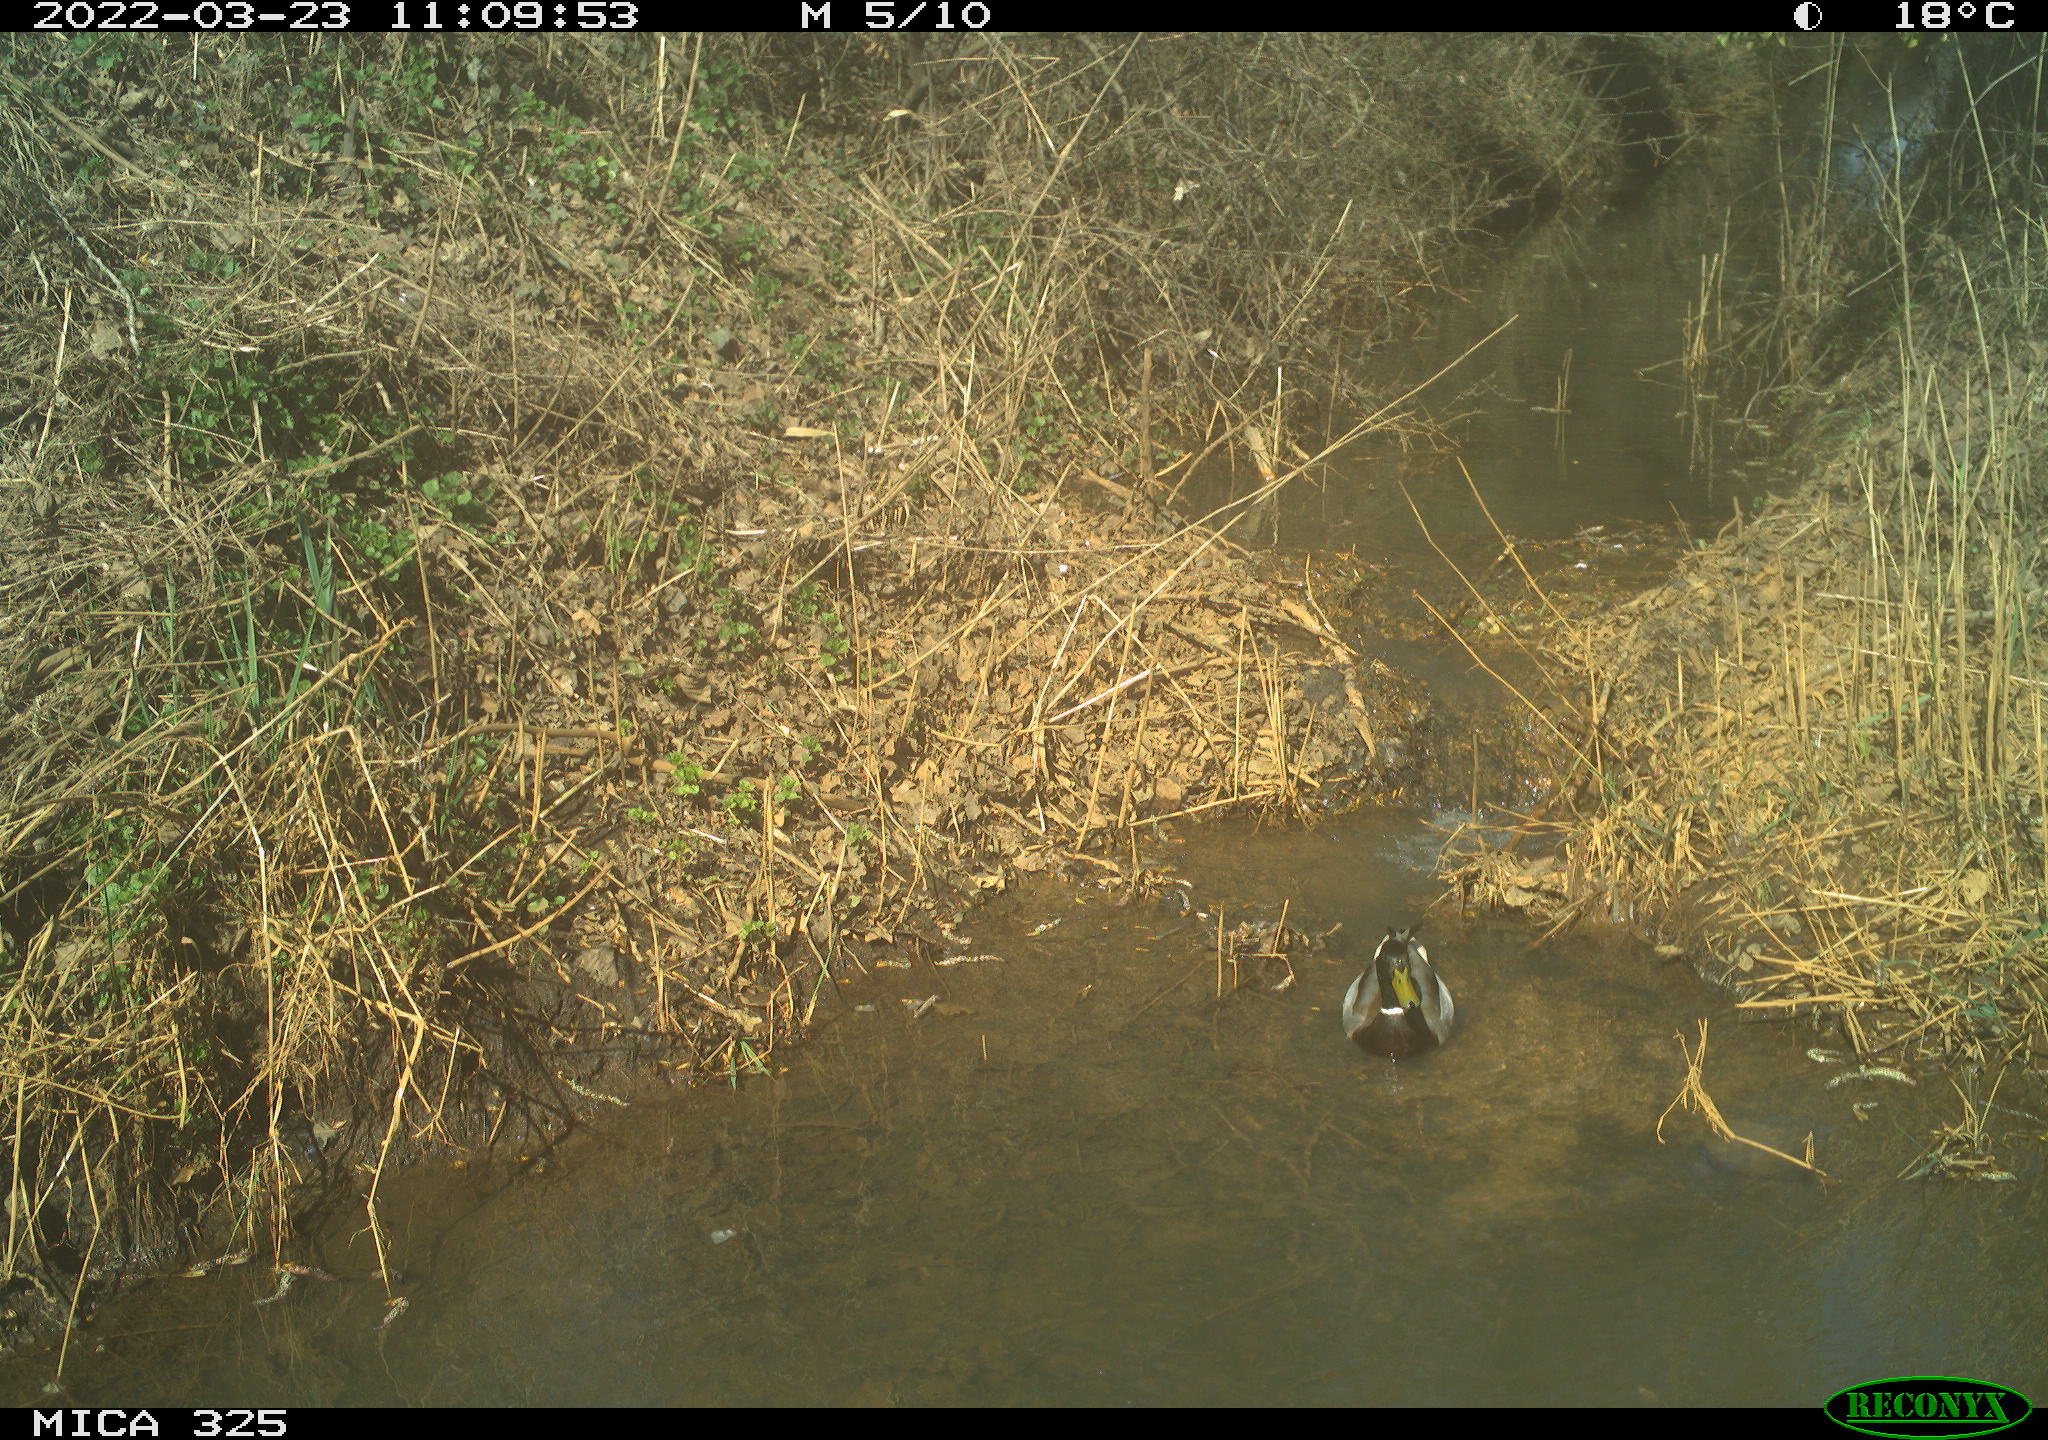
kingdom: Animalia
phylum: Chordata
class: Aves
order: Anseriformes
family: Anatidae
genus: Anas
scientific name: Anas platyrhynchos
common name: Mallard
